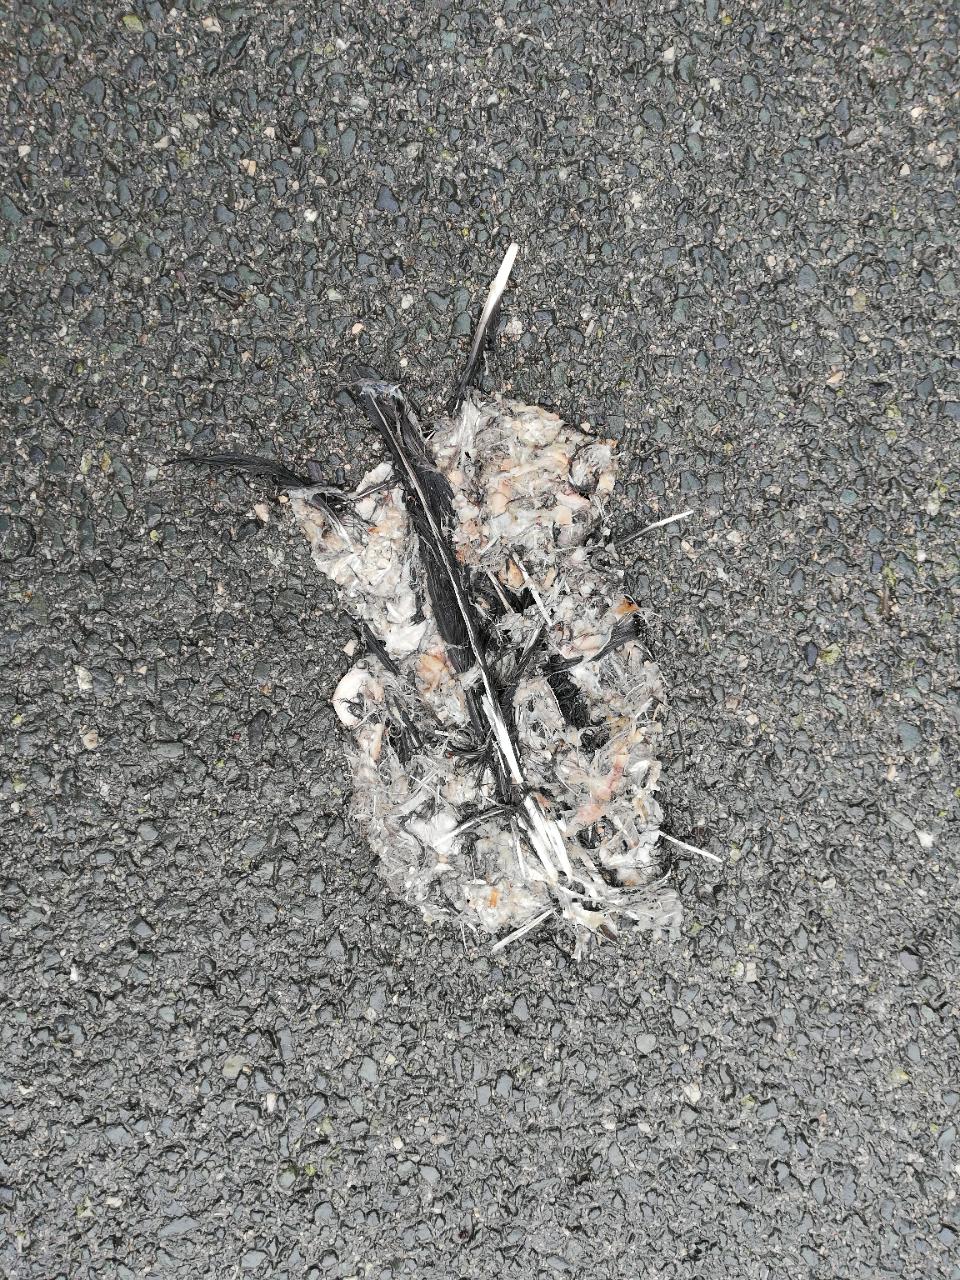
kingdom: Animalia
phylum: Chordata
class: Aves
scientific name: Aves
